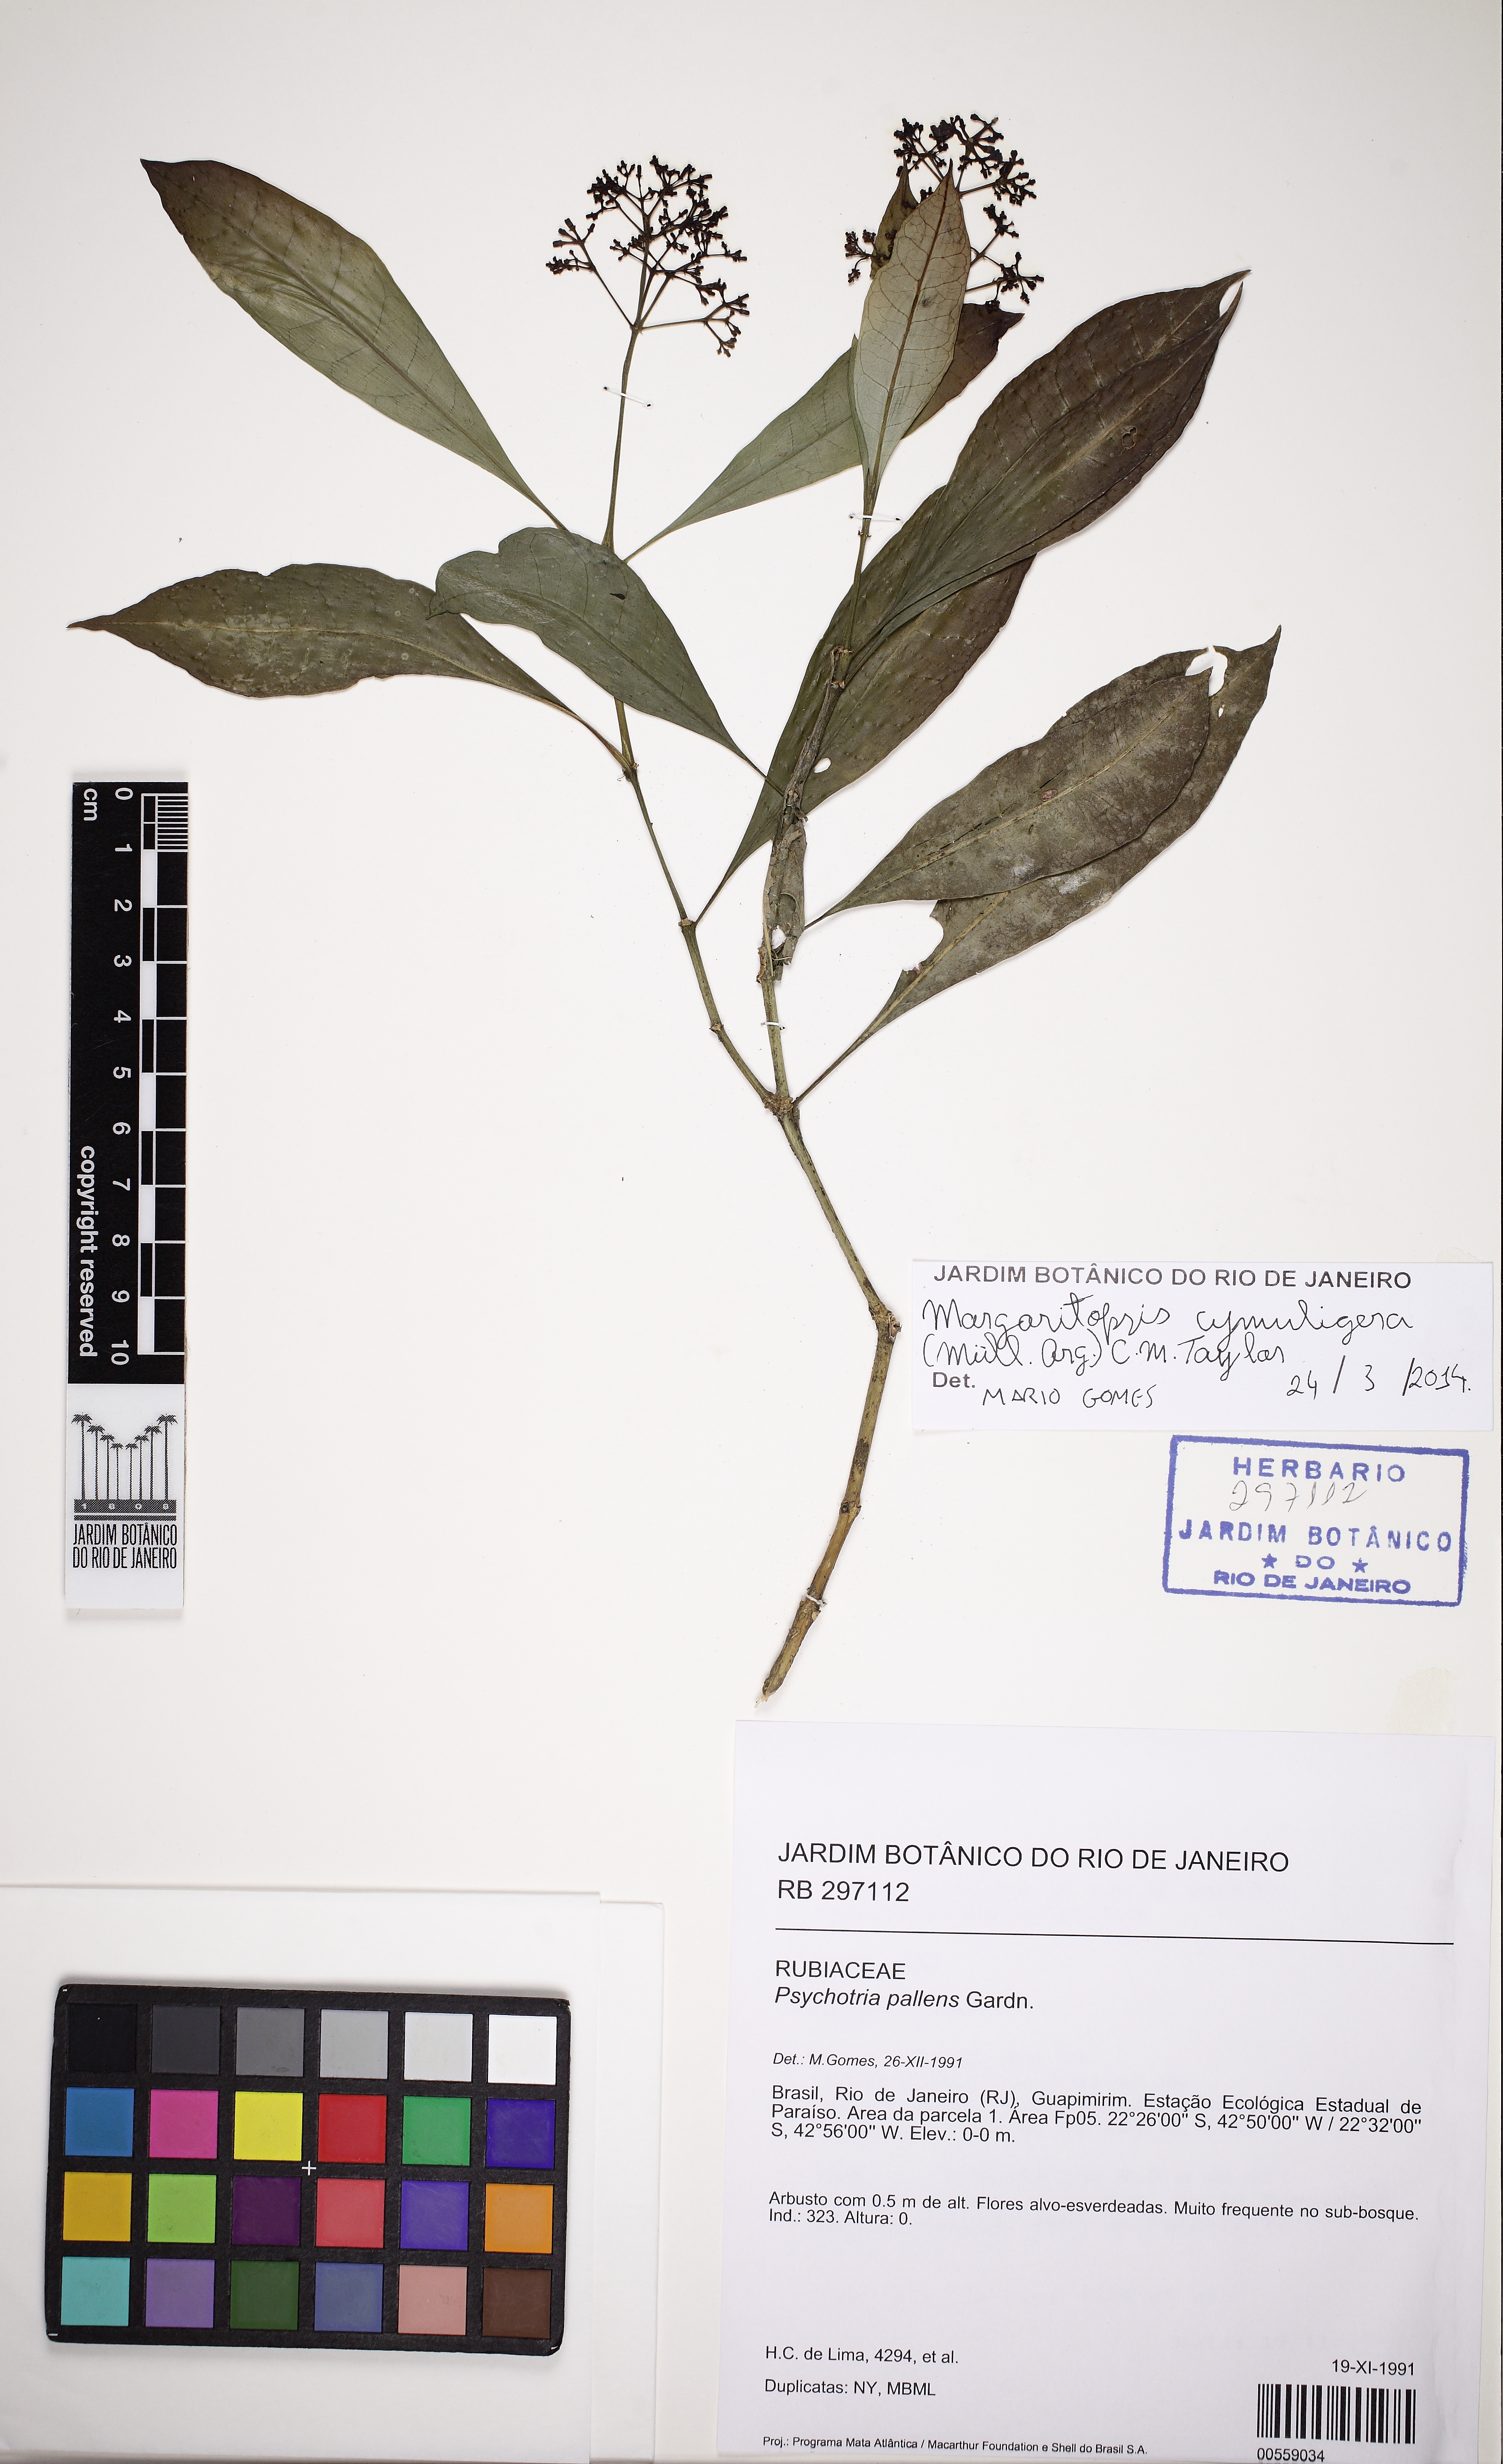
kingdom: Plantae
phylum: Tracheophyta
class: Magnoliopsida
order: Gentianales
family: Rubiaceae
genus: Eumachia
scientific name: Eumachia cymuligera
